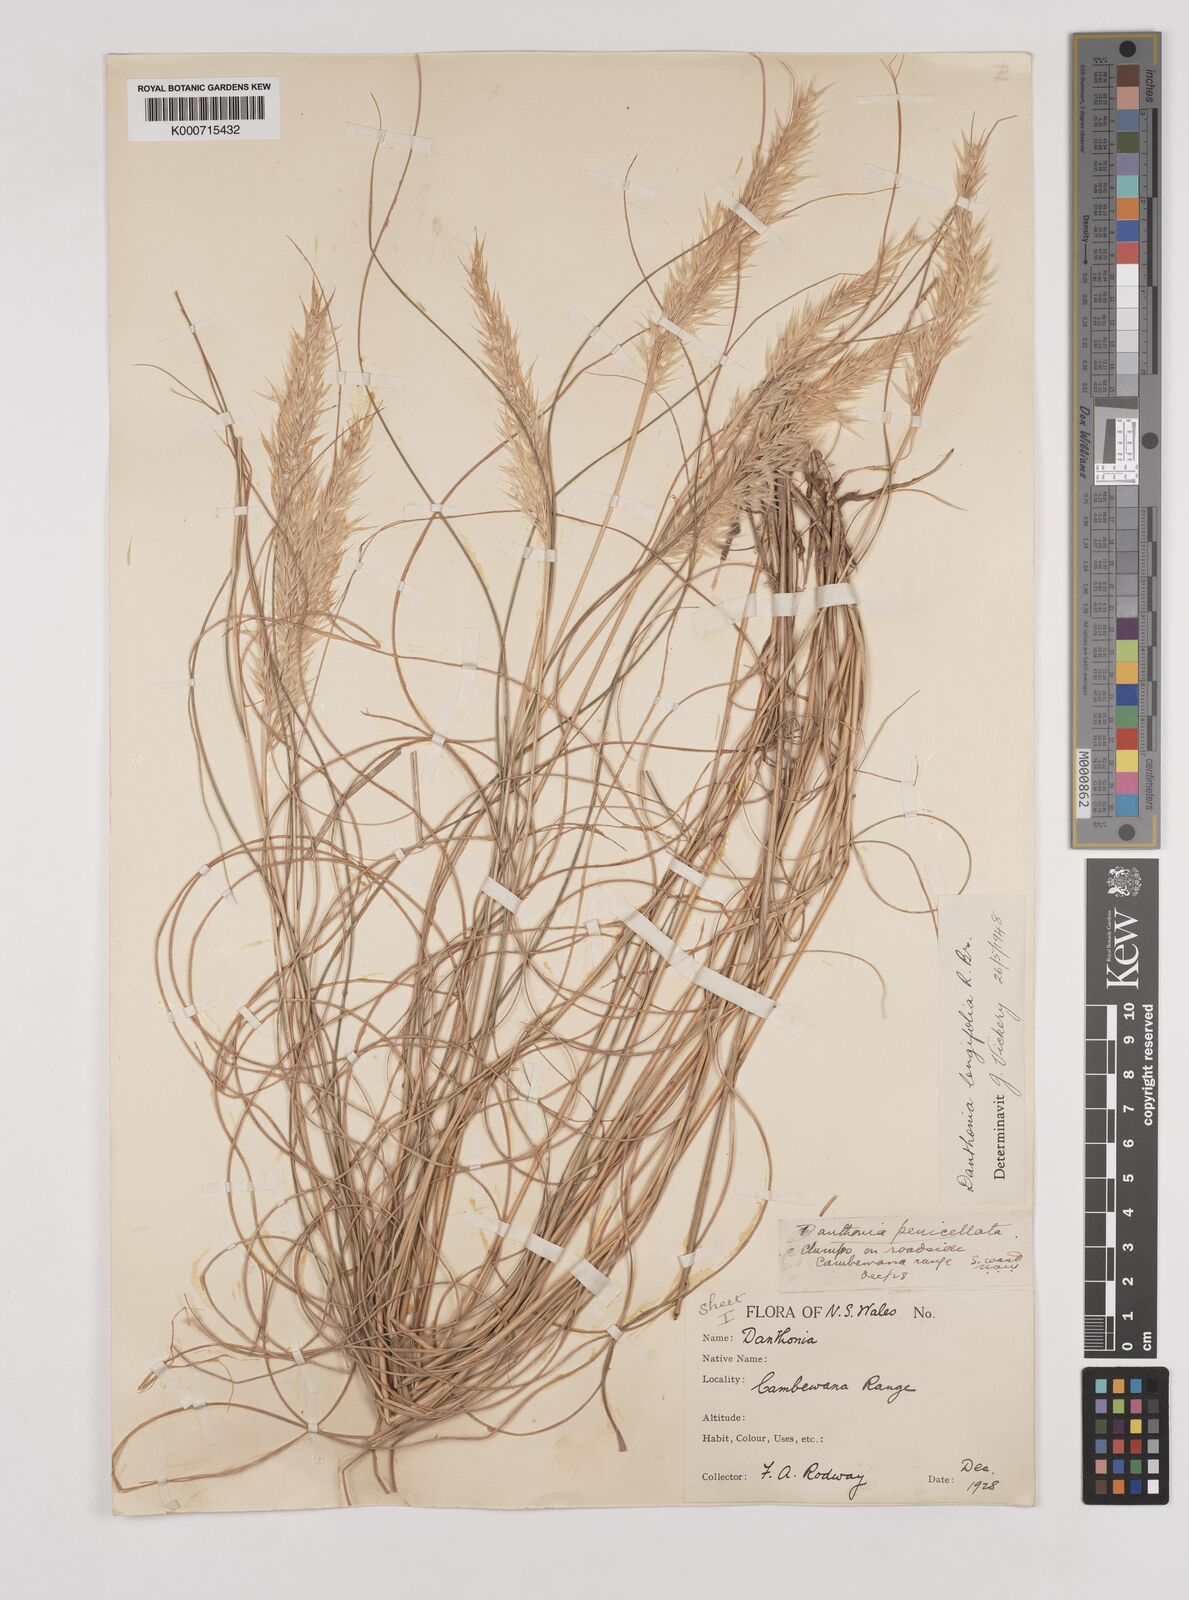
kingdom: Plantae
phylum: Tracheophyta
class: Liliopsida
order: Poales
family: Poaceae
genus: Rytidosperma
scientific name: Rytidosperma longifolium
